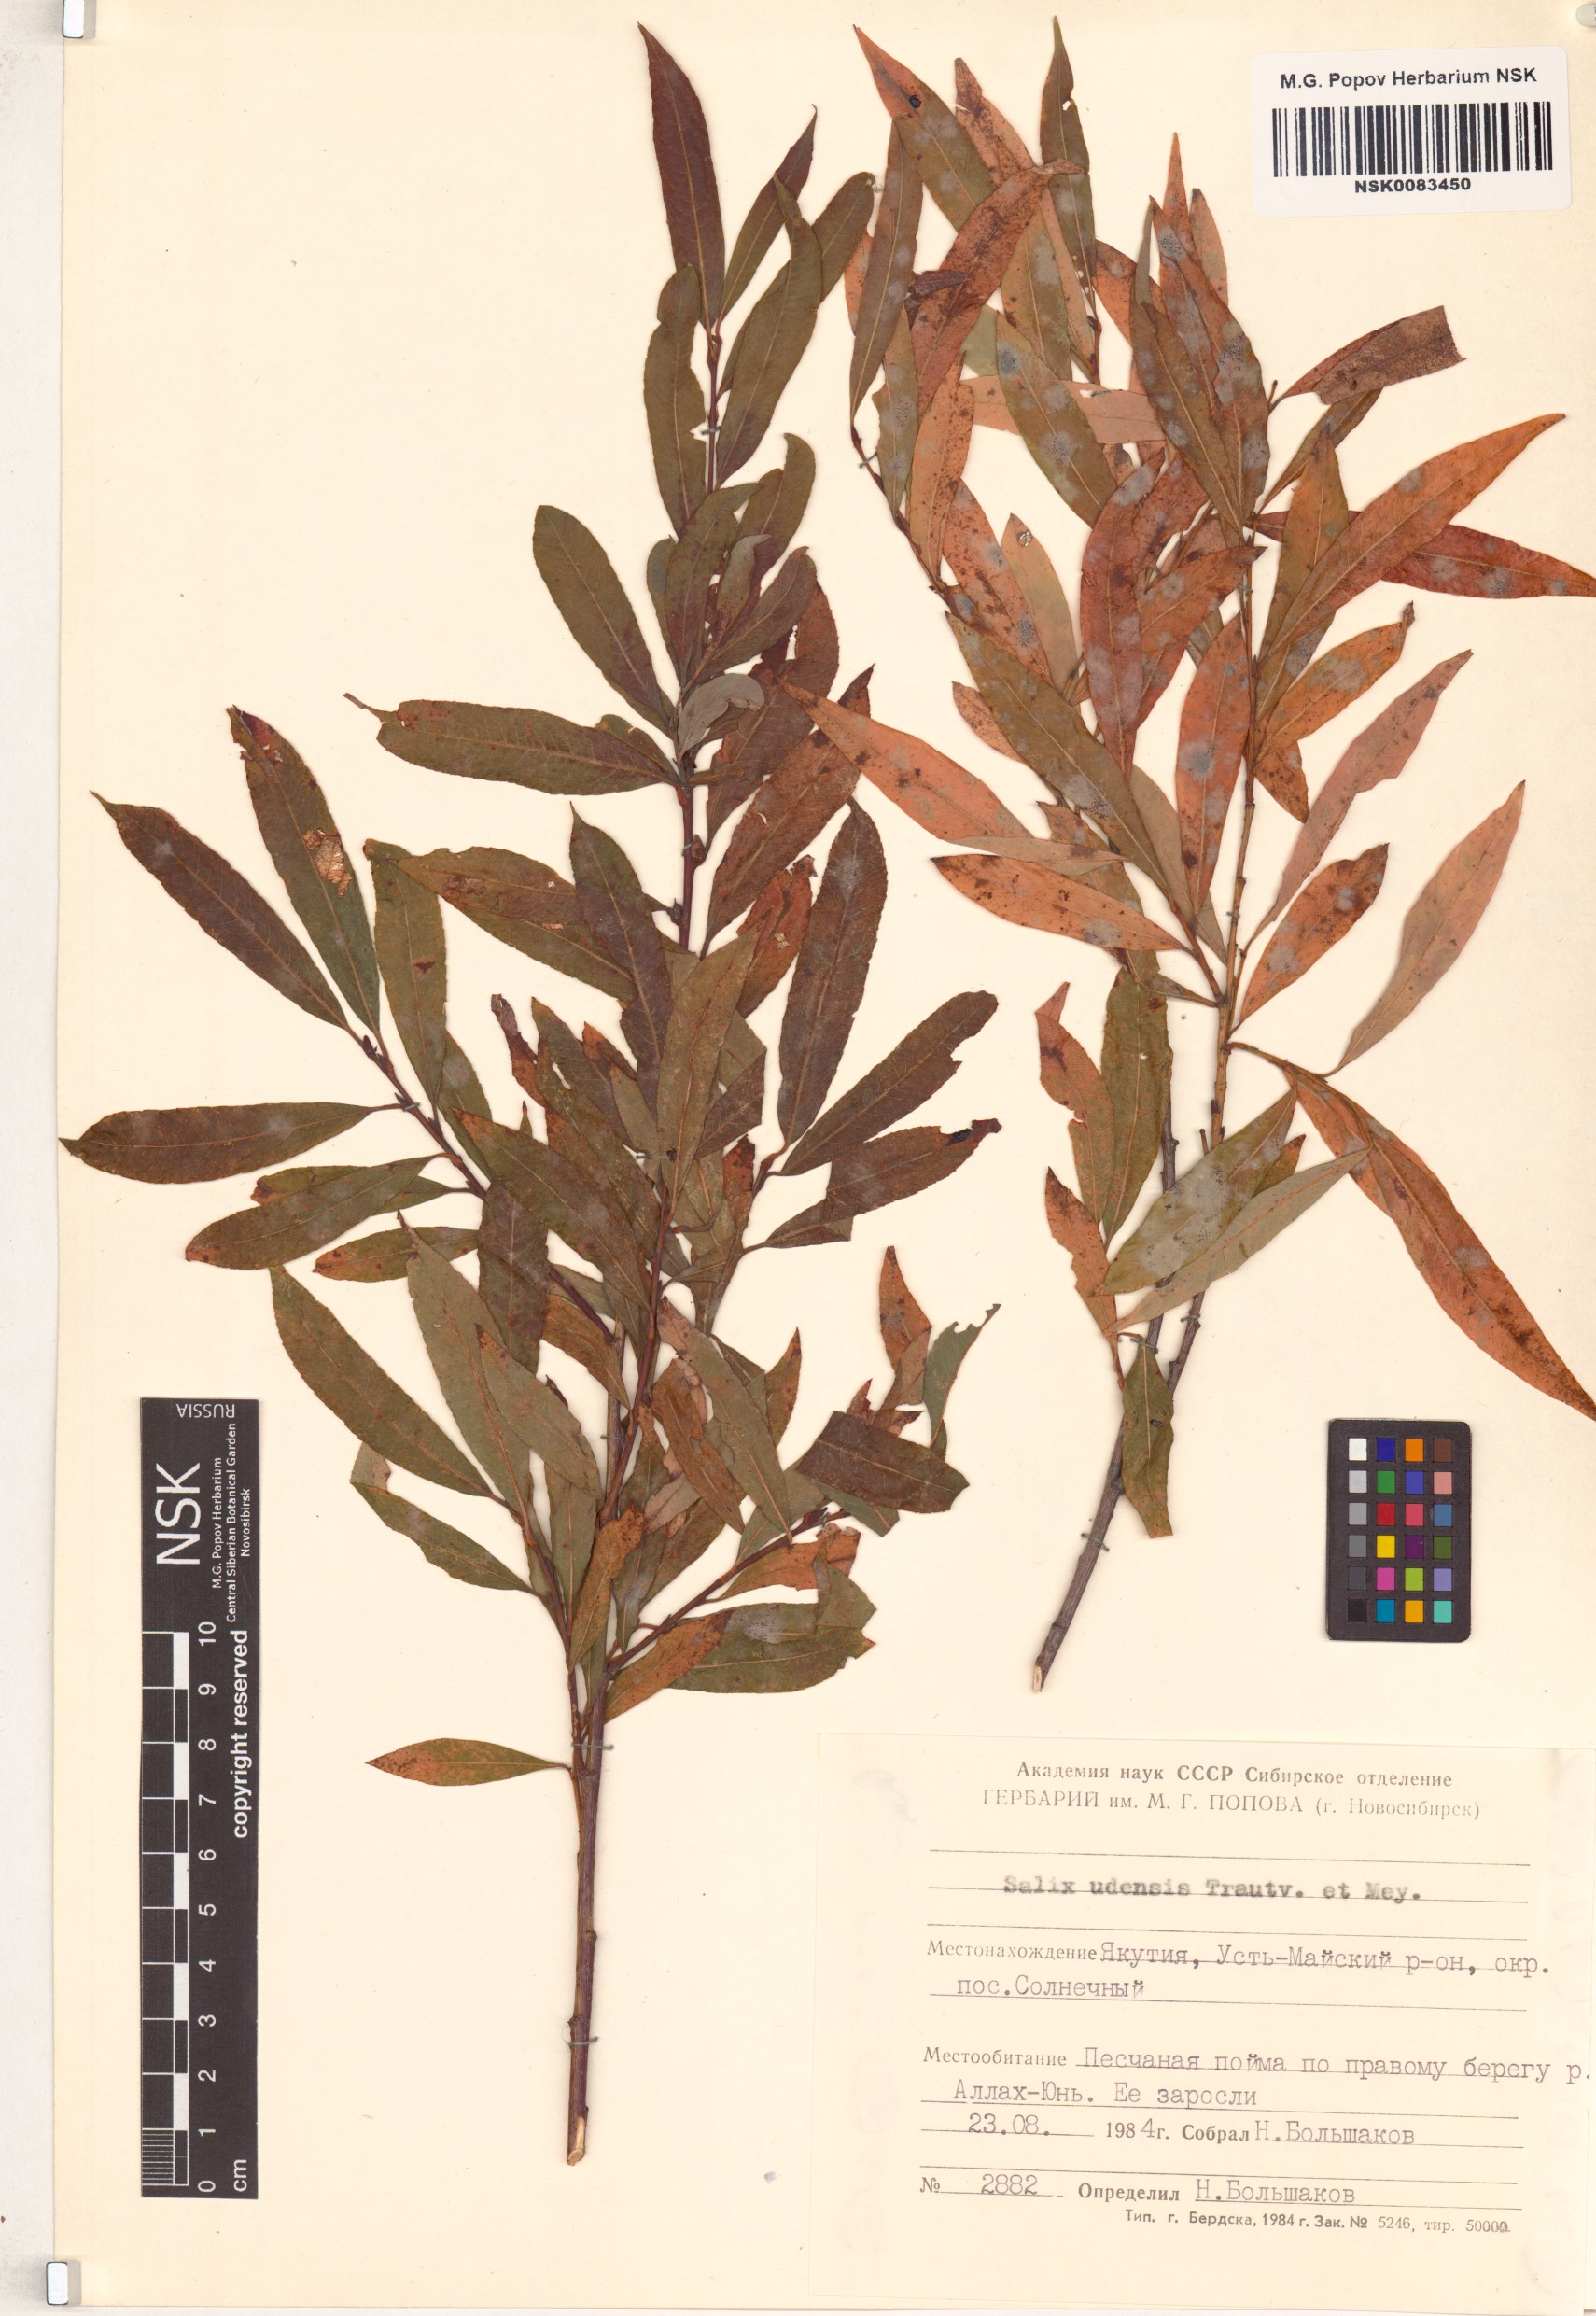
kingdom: Plantae
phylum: Tracheophyta
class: Magnoliopsida
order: Malpighiales
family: Salicaceae
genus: Salix
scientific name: Salix udensis
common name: Sachalin willow
